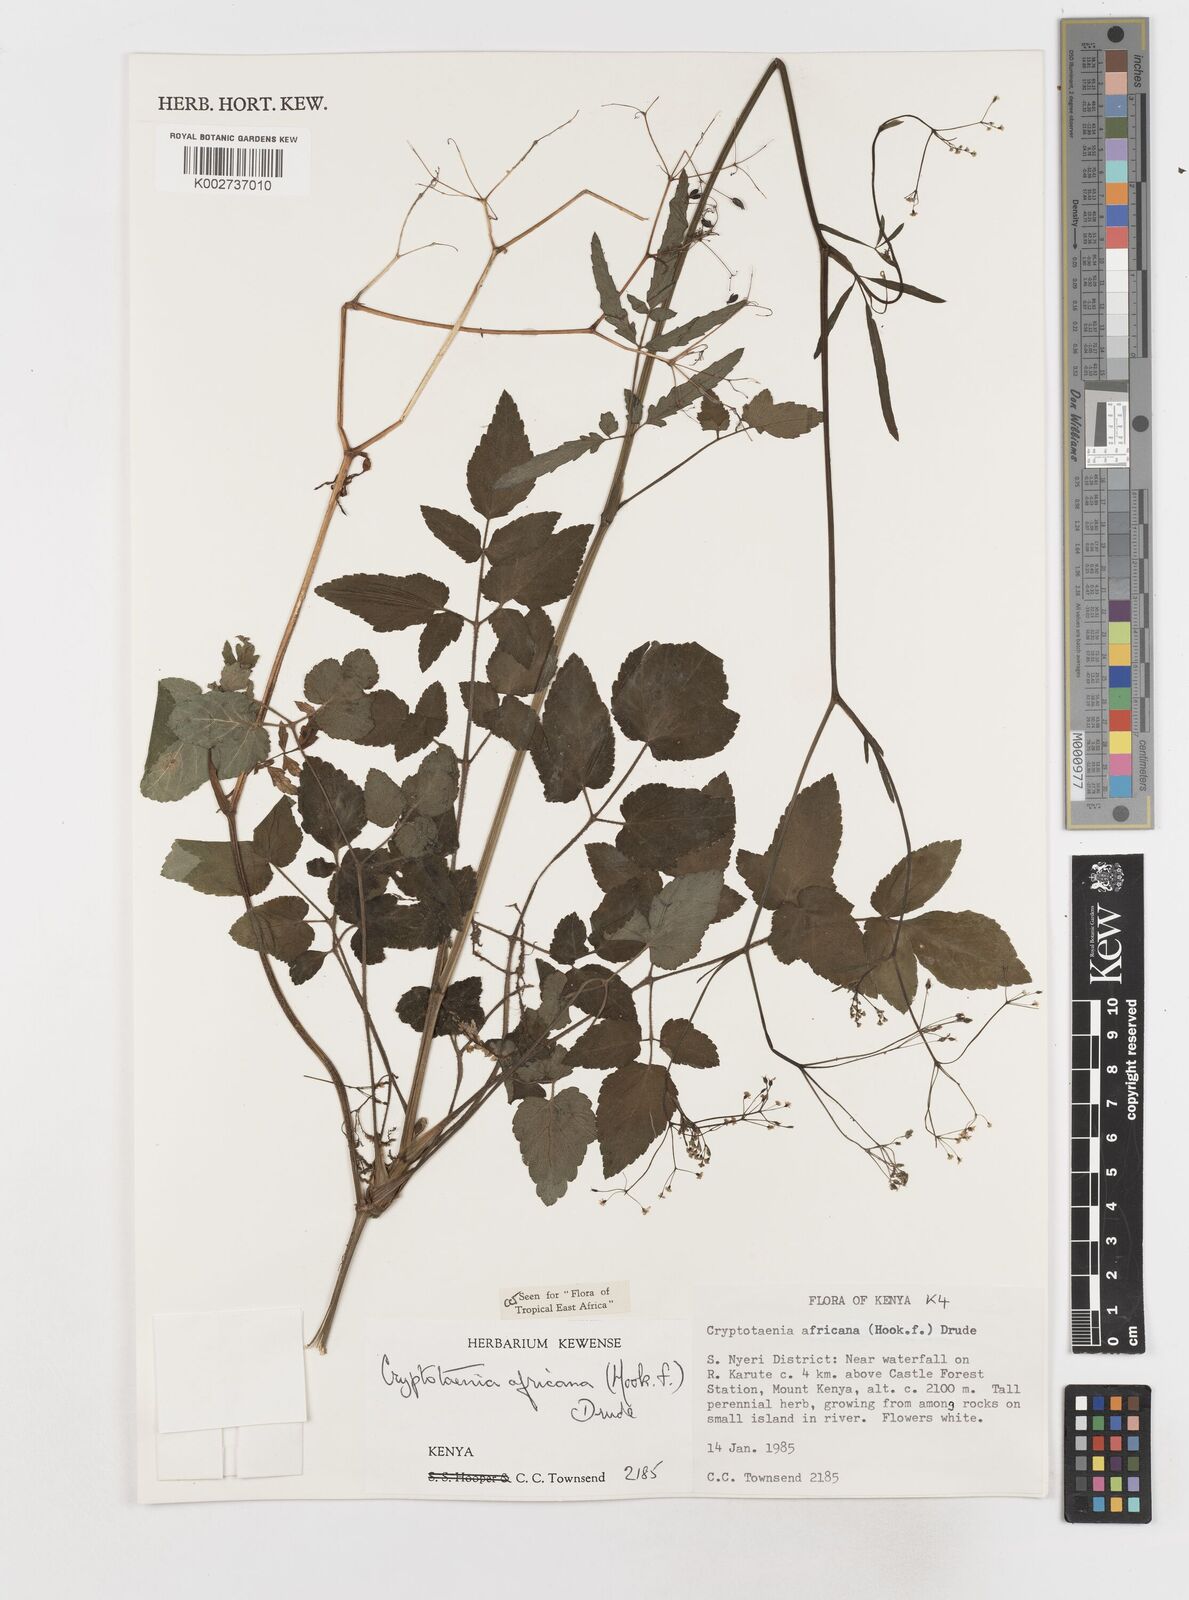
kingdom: Plantae
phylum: Tracheophyta
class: Magnoliopsida
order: Apiales
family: Apiaceae
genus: Cryptotaenia
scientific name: Cryptotaenia africana
